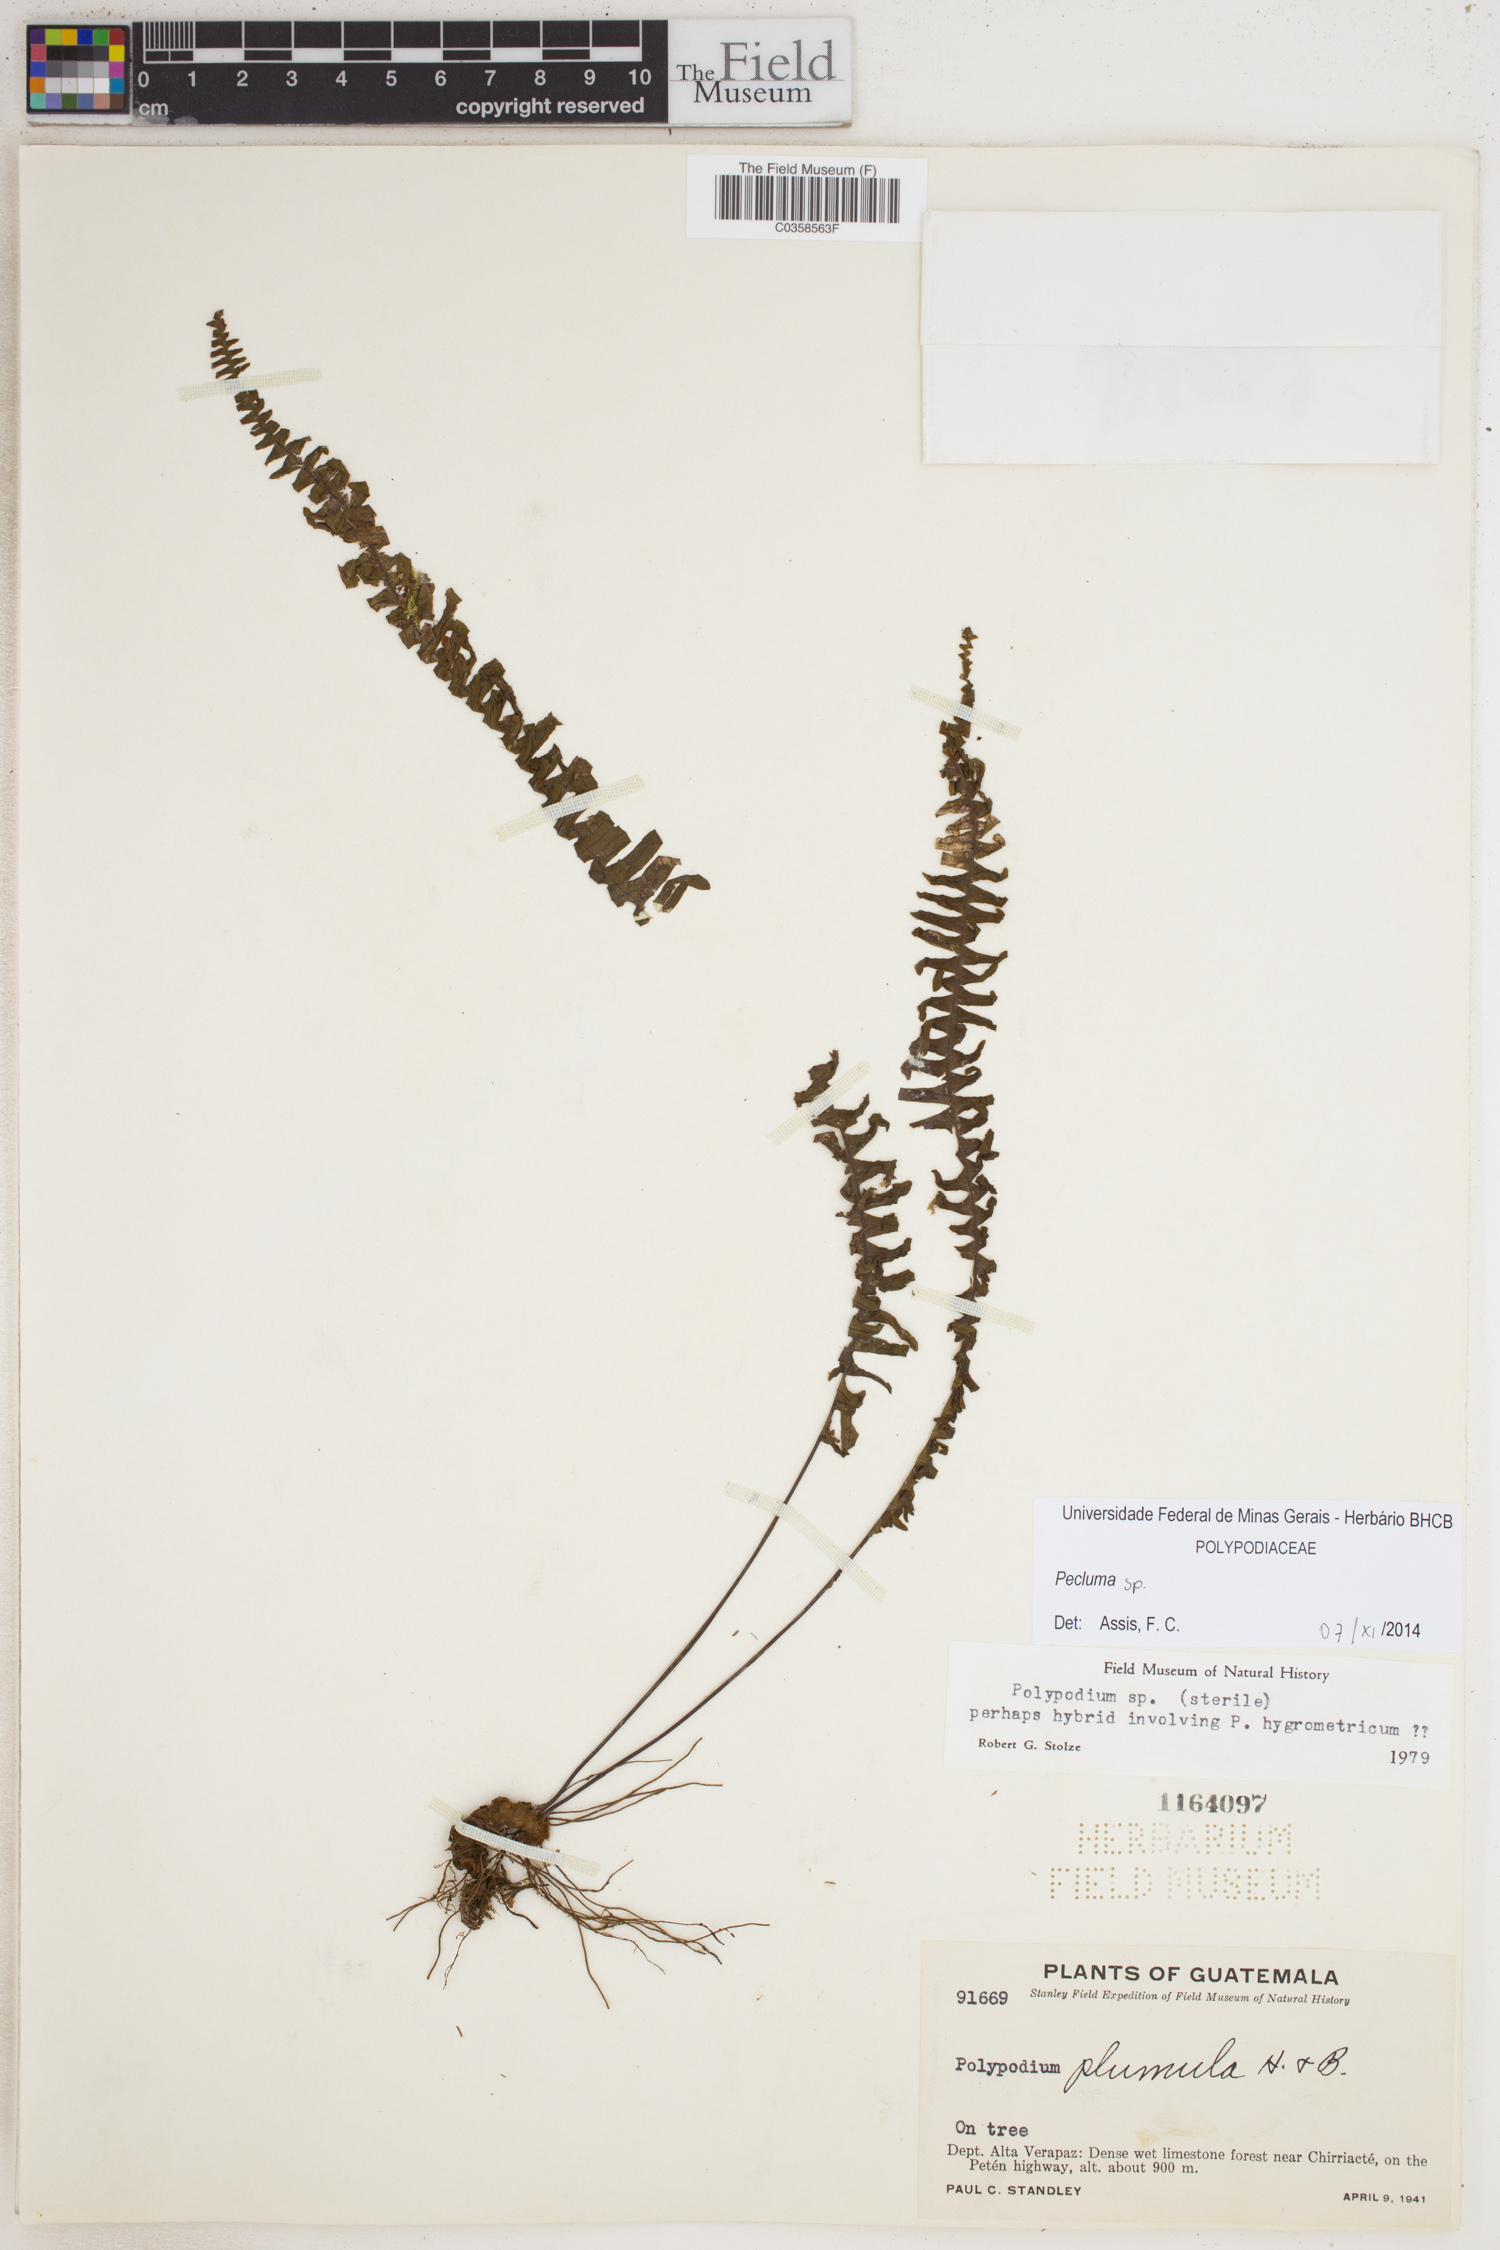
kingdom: Plantae
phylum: Tracheophyta
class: Polypodiopsida
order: Polypodiales
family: Polypodiaceae
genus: Pecluma
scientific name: Pecluma
